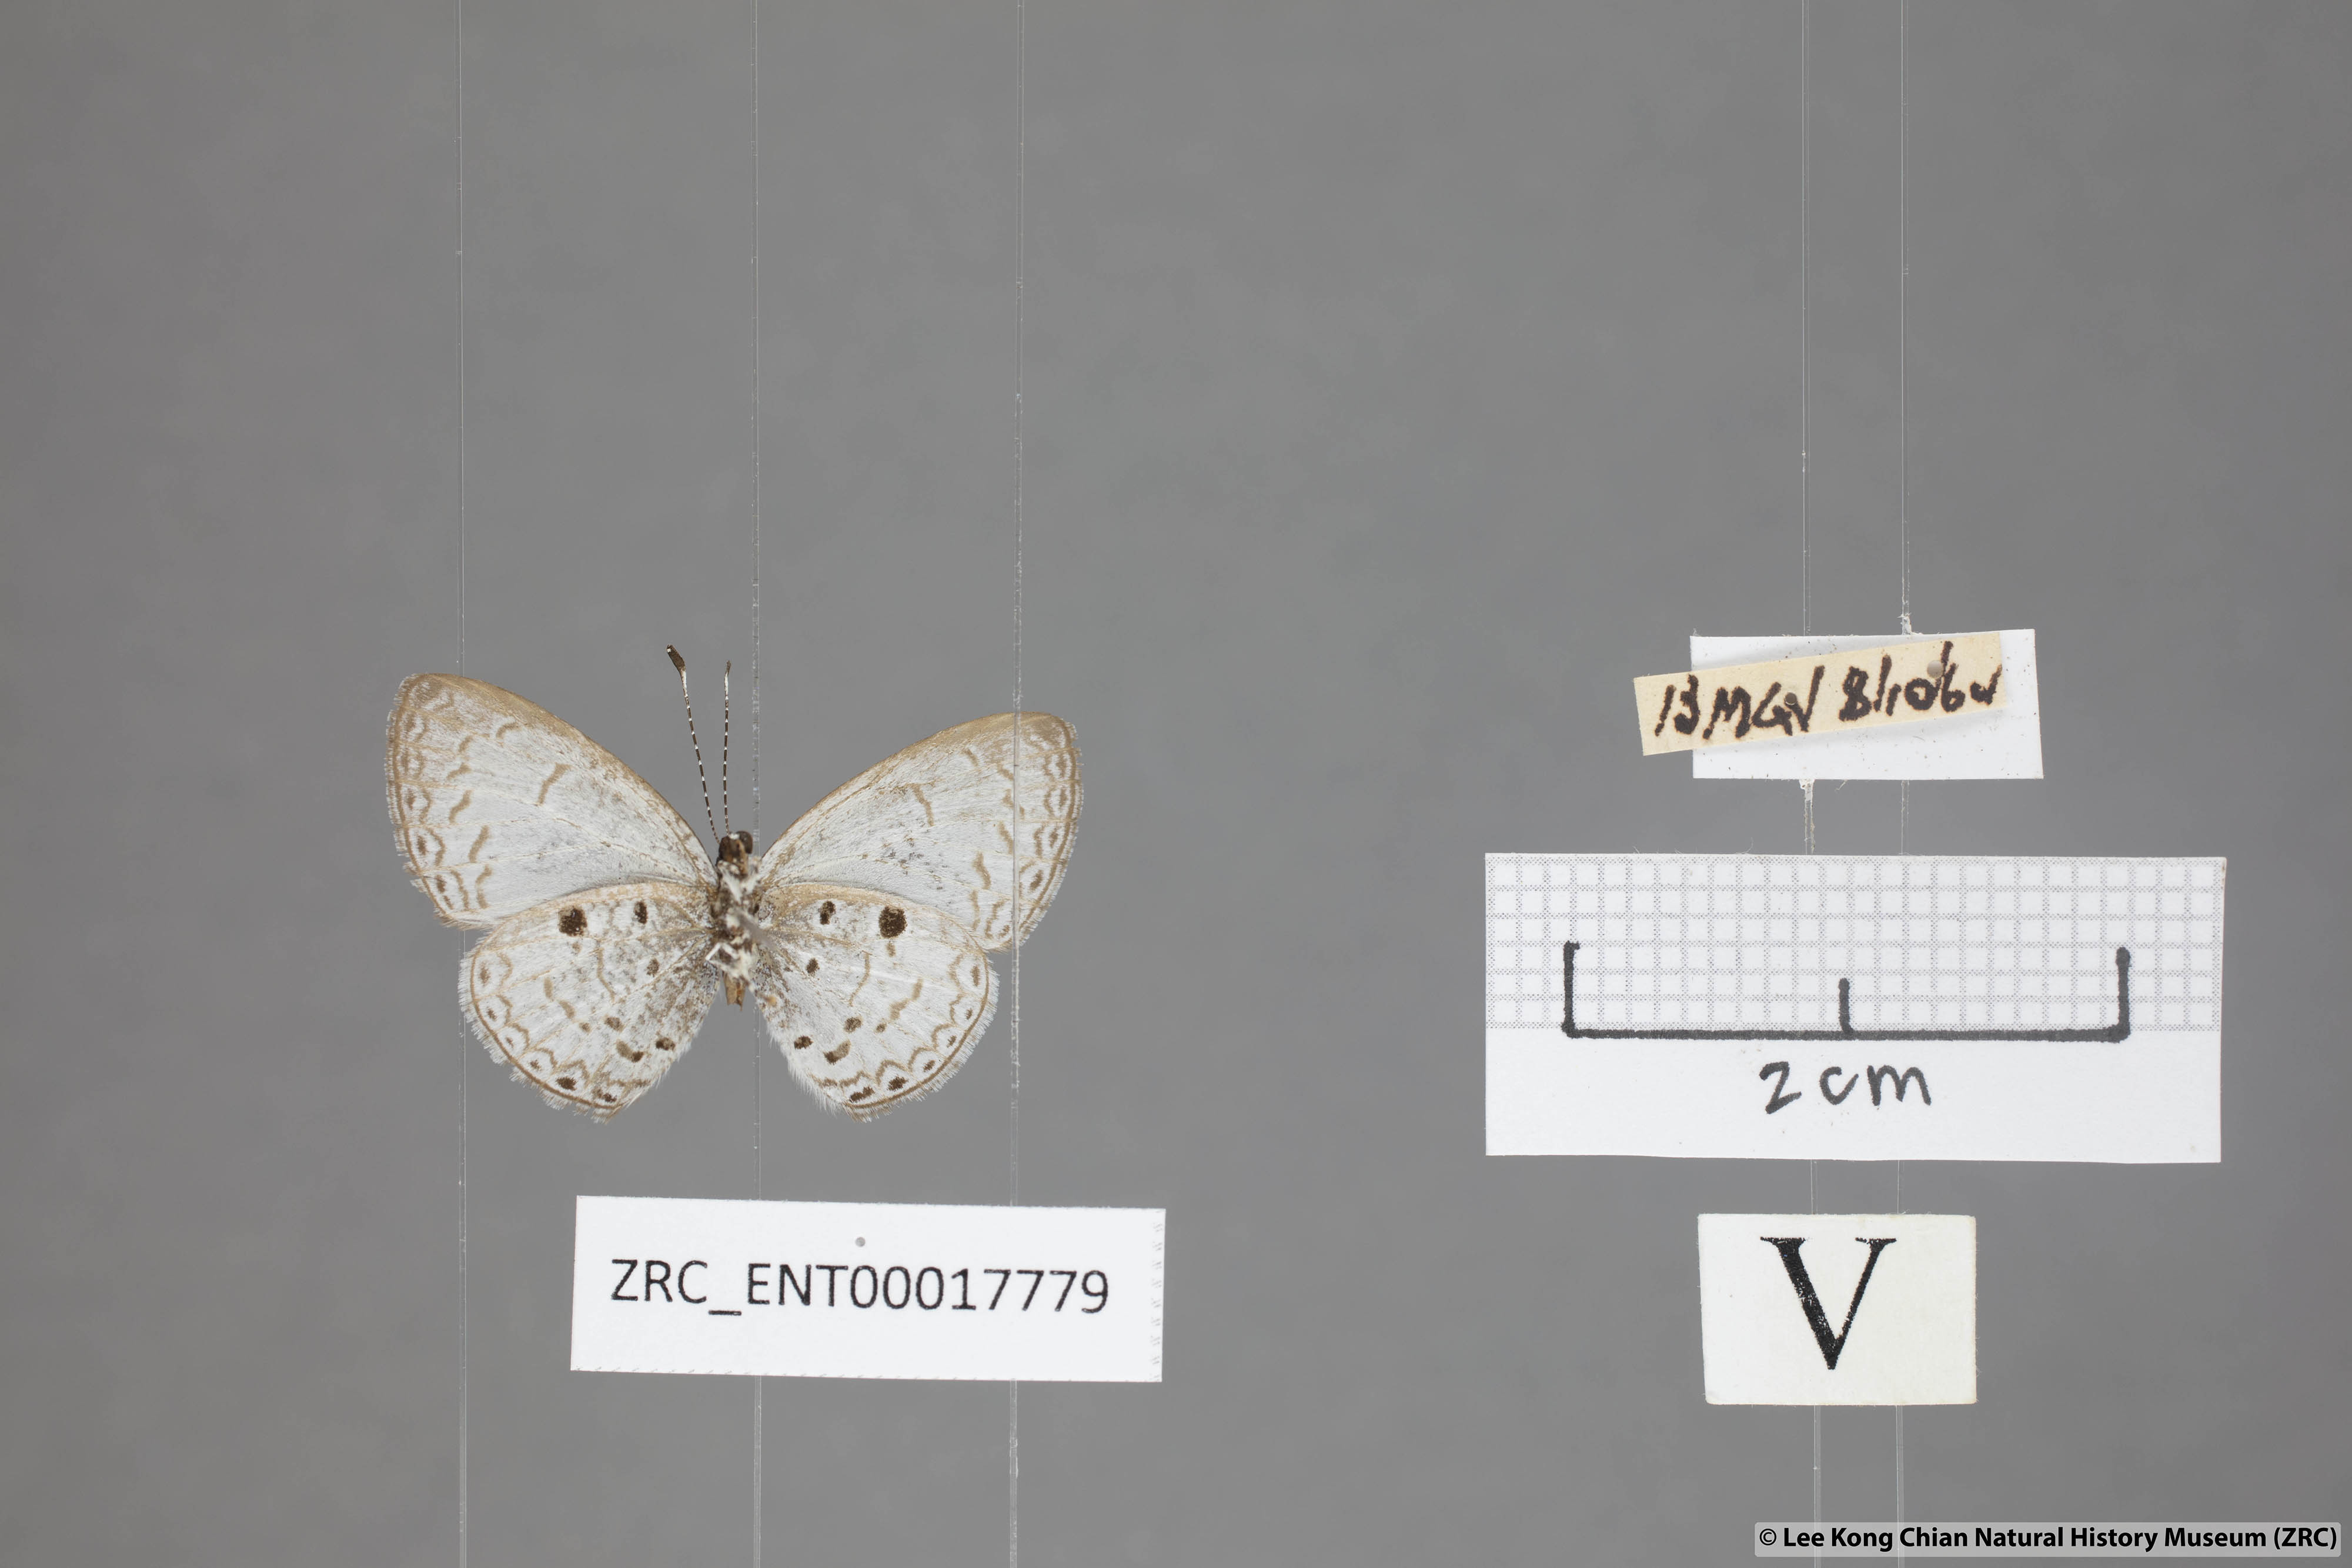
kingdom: Animalia
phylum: Arthropoda
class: Insecta
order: Lepidoptera
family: Lycaenidae
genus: Callenya
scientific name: Callenya lenya
